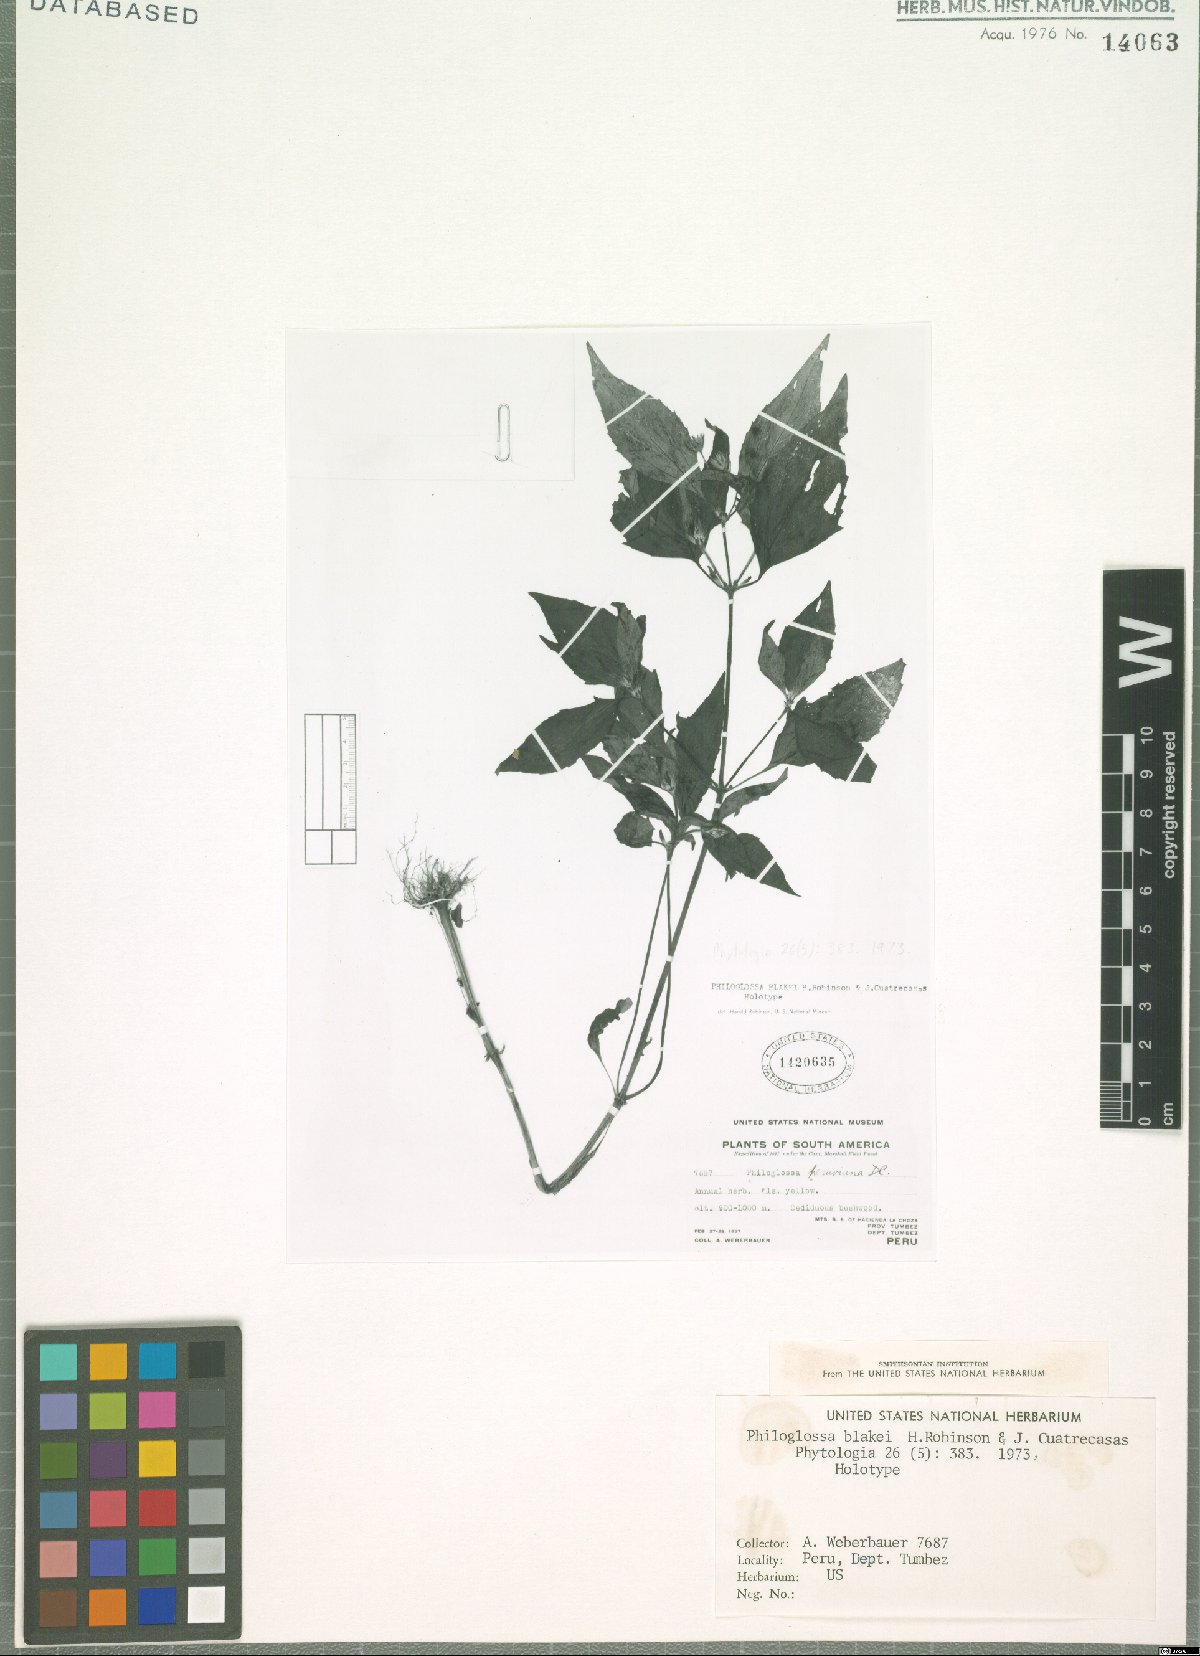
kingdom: Plantae
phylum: Tracheophyta
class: Magnoliopsida
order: Asterales
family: Asteraceae
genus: Philoglossa
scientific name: Philoglossa blakei
